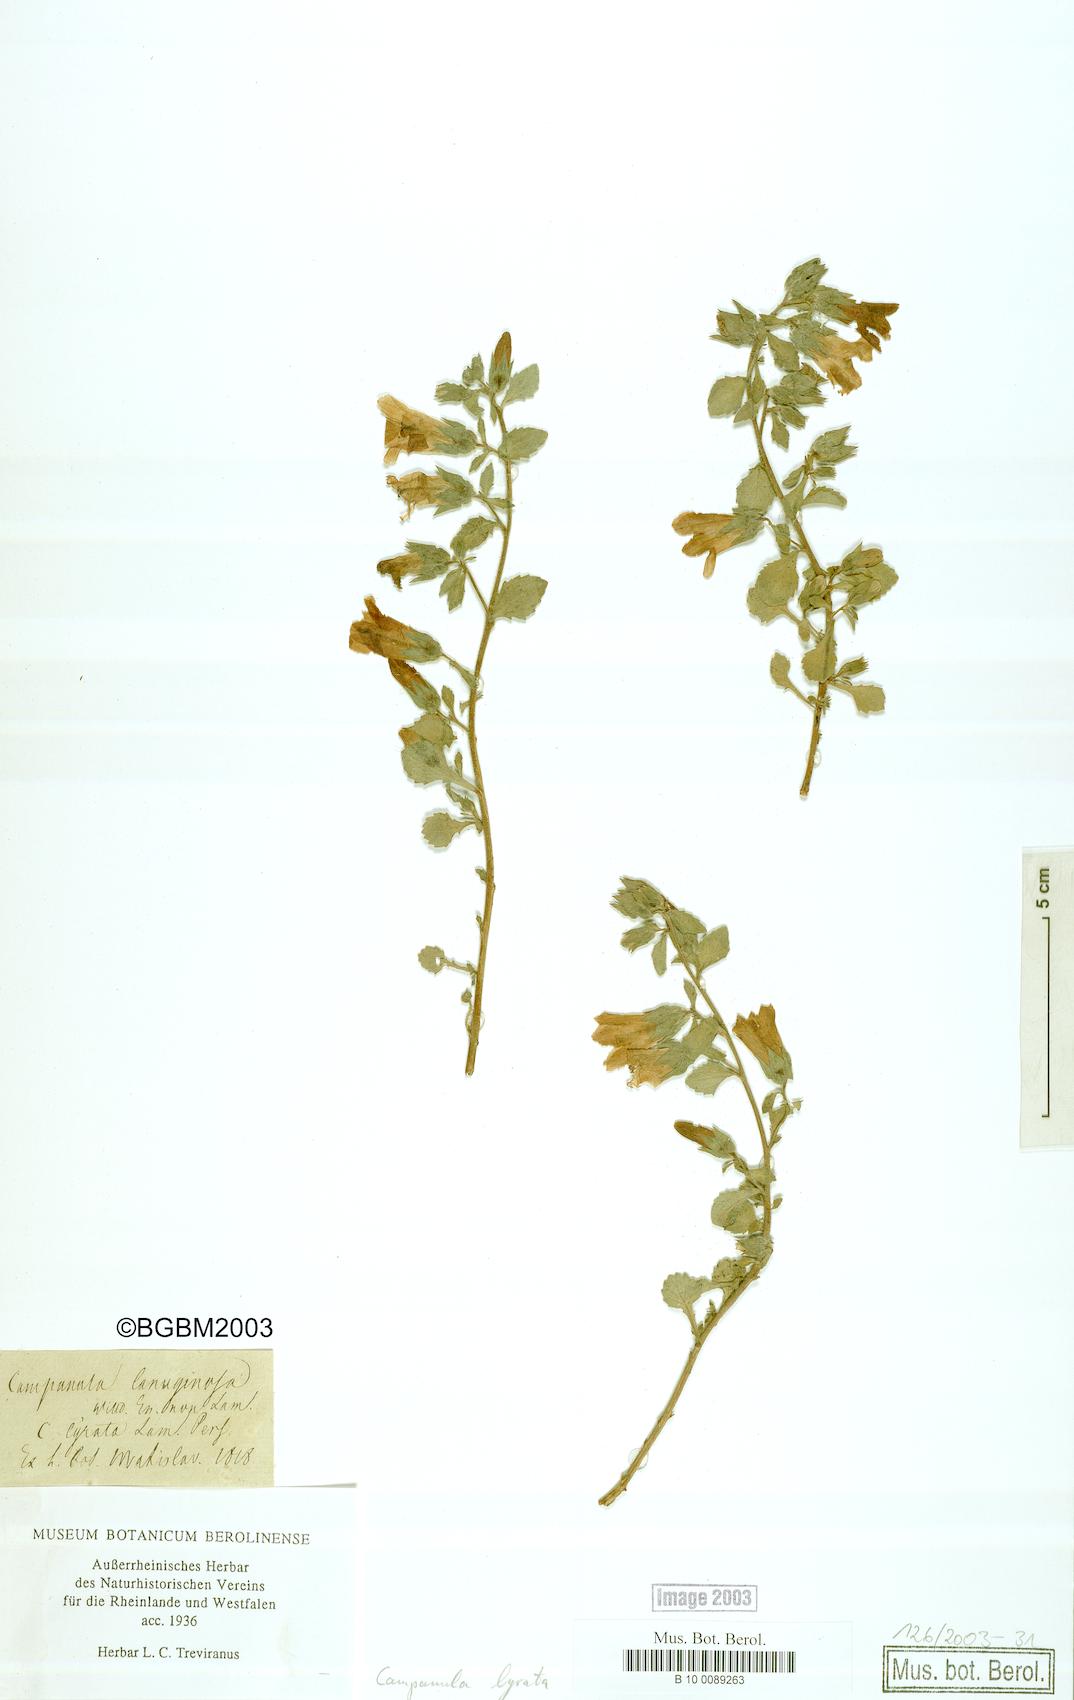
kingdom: Plantae
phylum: Tracheophyta
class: Magnoliopsida
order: Asterales
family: Campanulaceae
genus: Campanula
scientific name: Campanula lyrata
